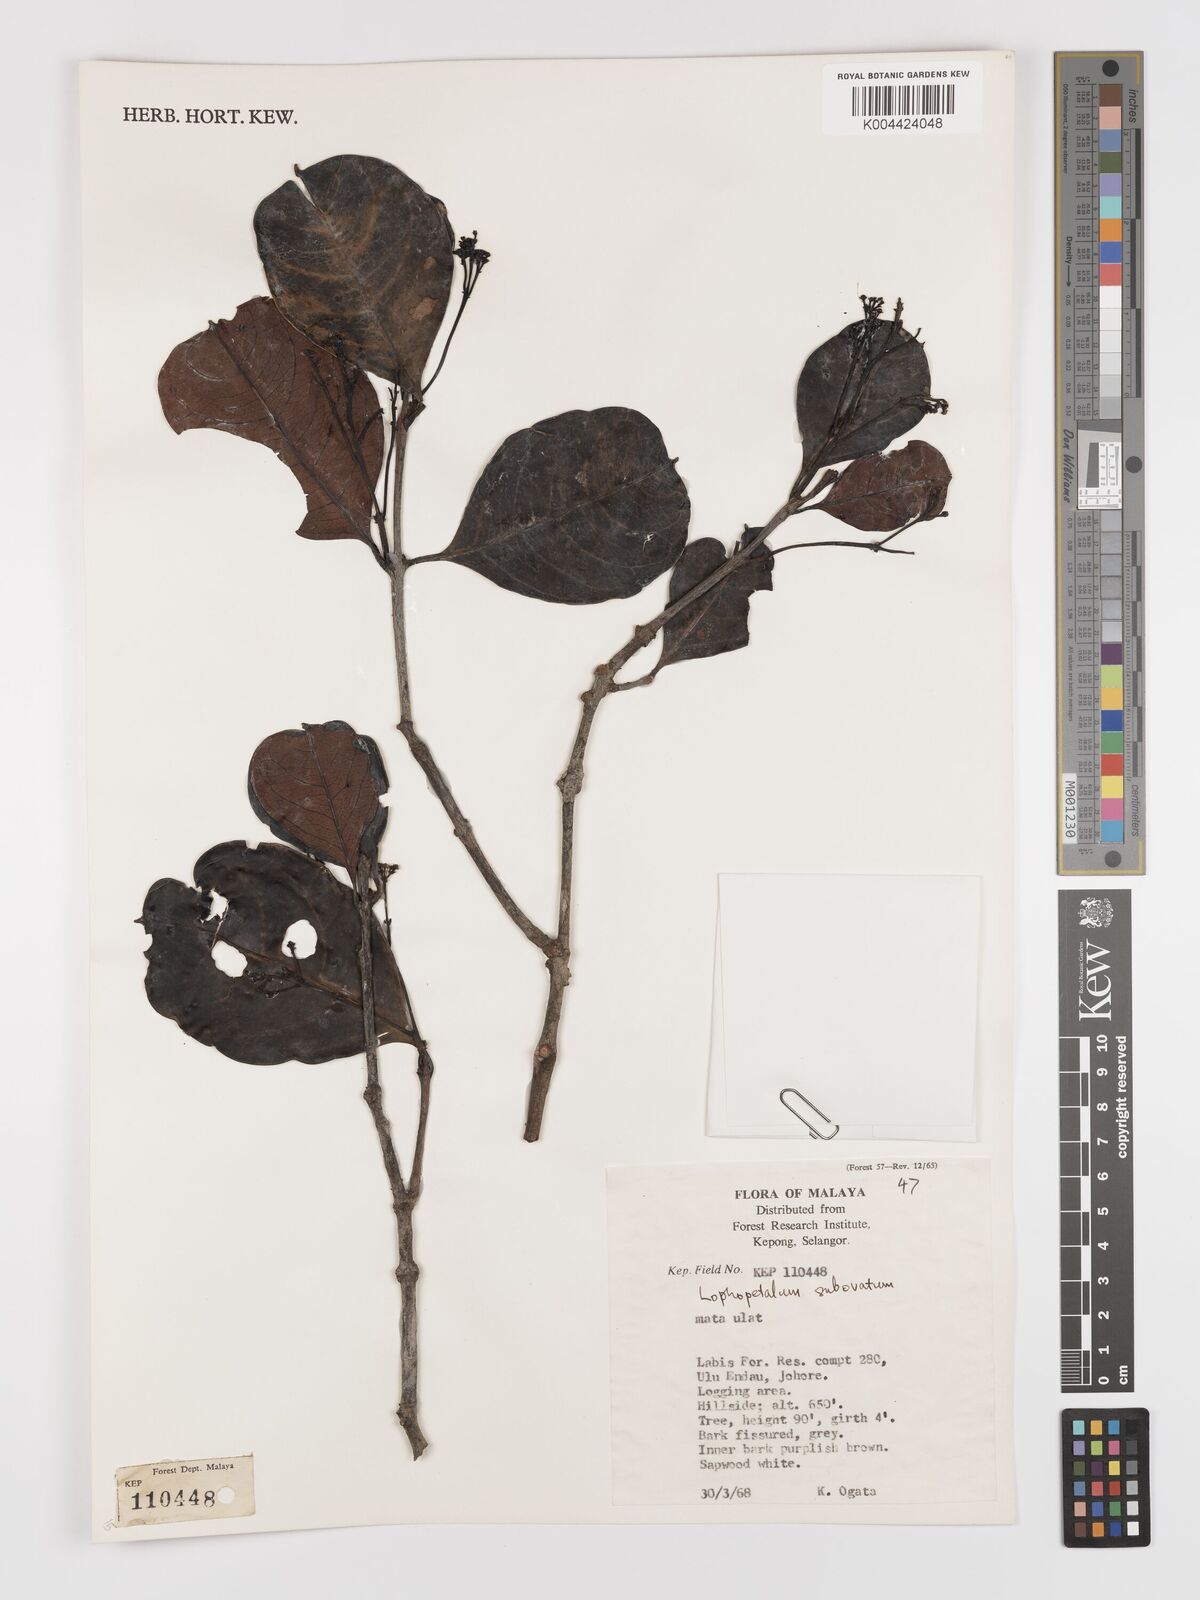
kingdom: Plantae
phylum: Tracheophyta
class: Magnoliopsida
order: Celastrales
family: Celastraceae
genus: Lophopetalum
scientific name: Lophopetalum subobovatum
